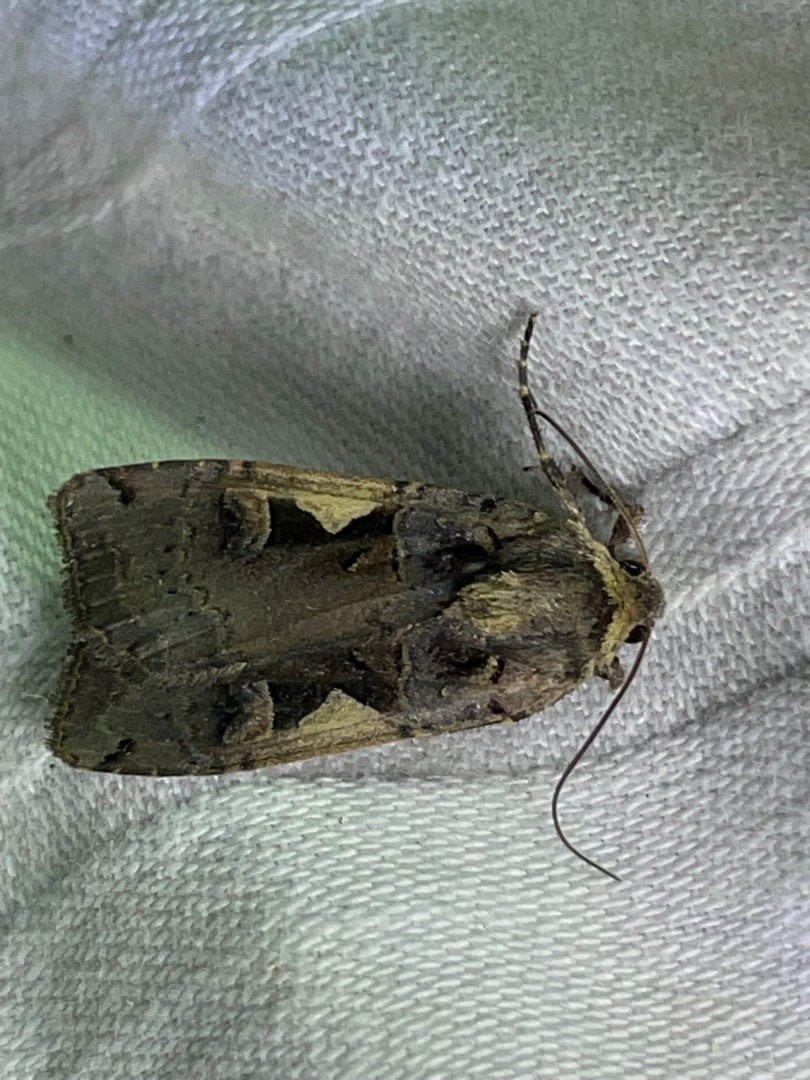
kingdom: Animalia
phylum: Arthropoda
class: Insecta
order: Lepidoptera
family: Noctuidae
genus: Xestia
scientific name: Xestia c-nigrum
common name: Det sorte c
